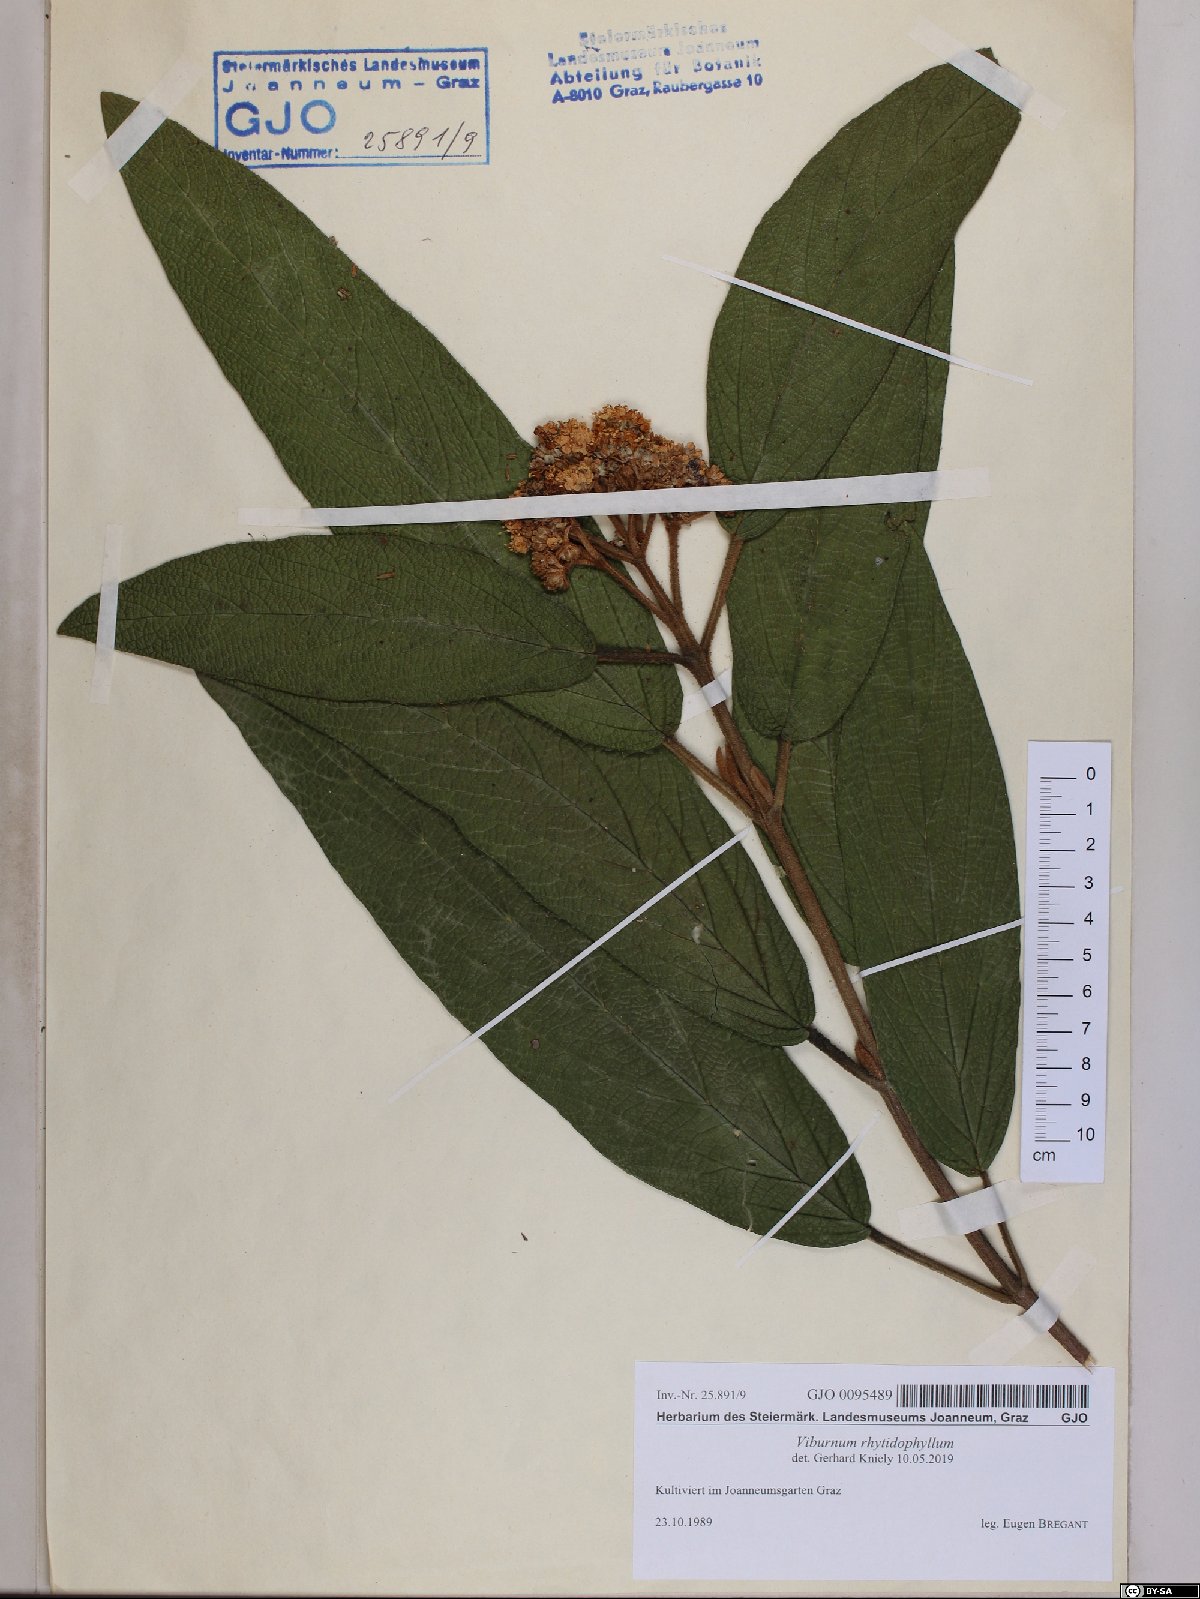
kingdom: Plantae
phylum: Tracheophyta
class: Magnoliopsida
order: Dipsacales
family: Viburnaceae
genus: Viburnum
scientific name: Viburnum rhytidophyllum
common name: Wrinkled viburnum
